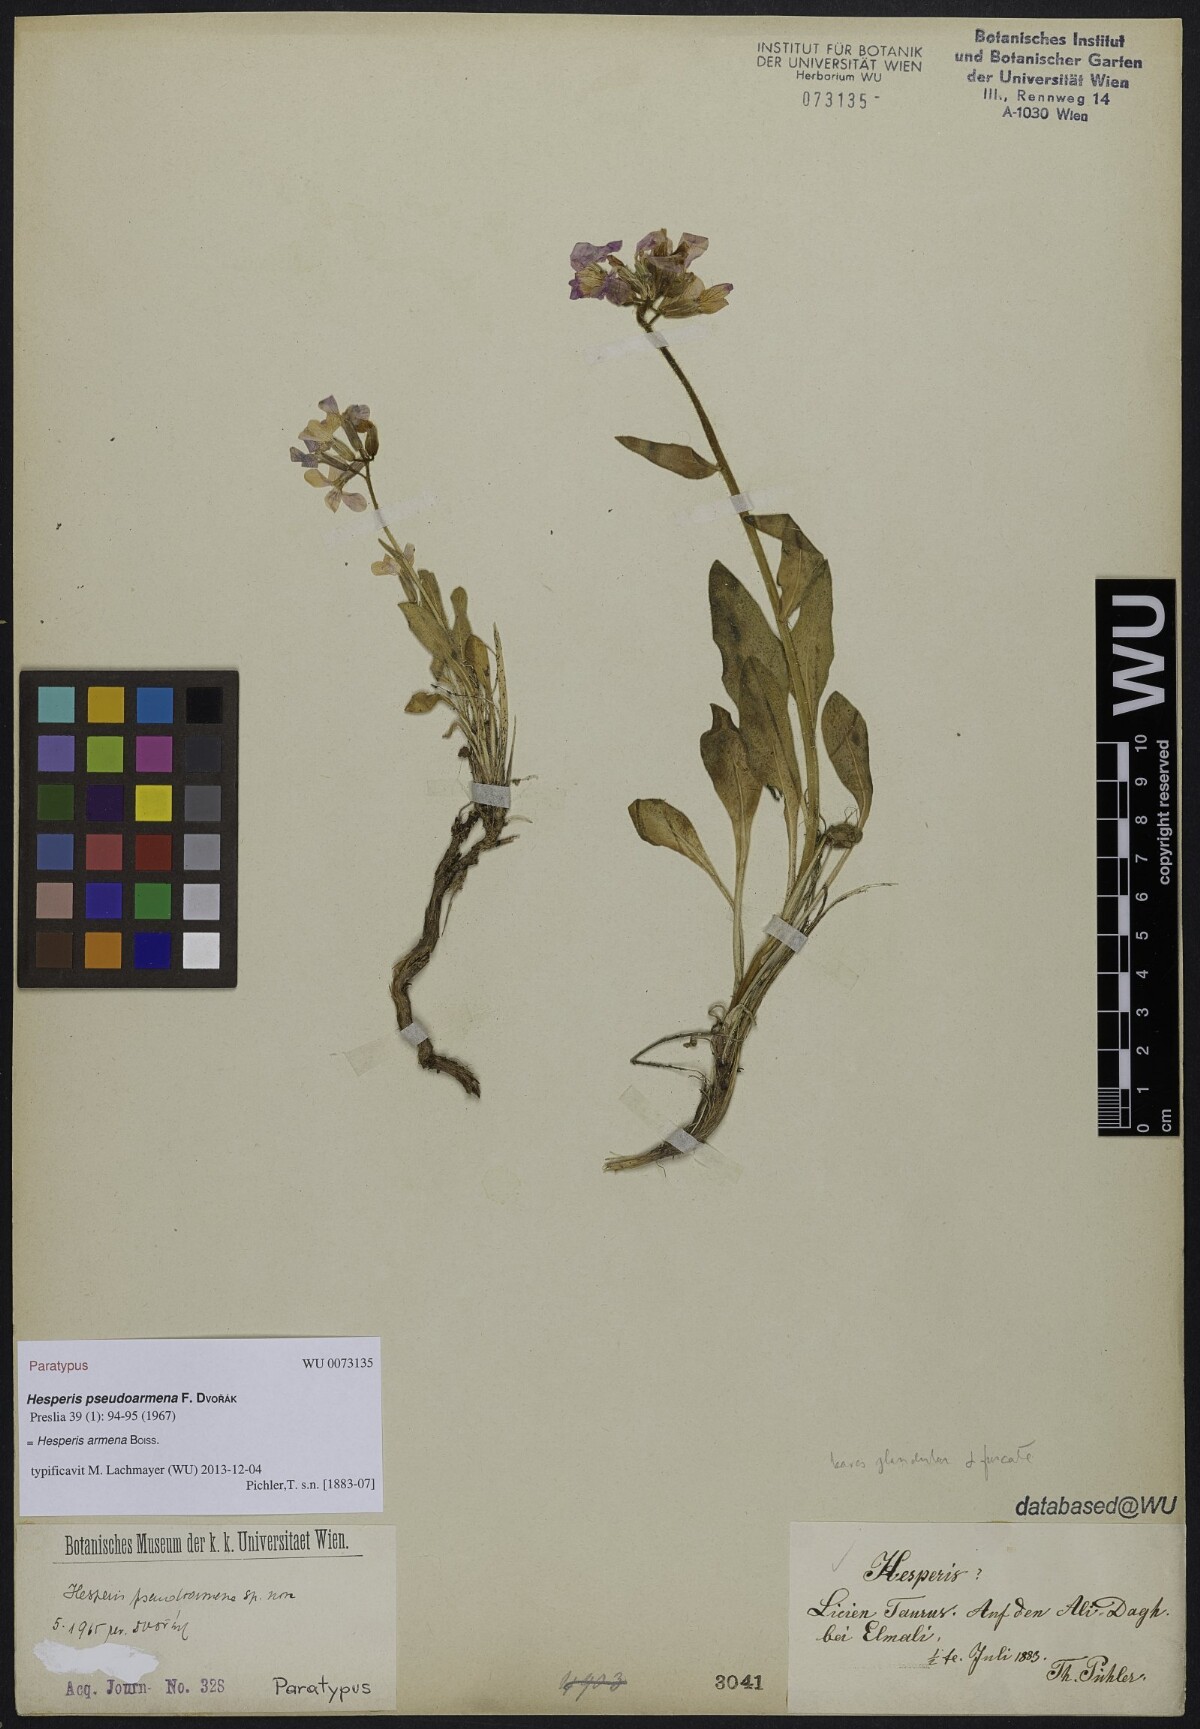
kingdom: Plantae
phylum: Tracheophyta
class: Magnoliopsida
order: Brassicales
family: Brassicaceae
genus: Hesperis
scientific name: Hesperis pseudoarmena
